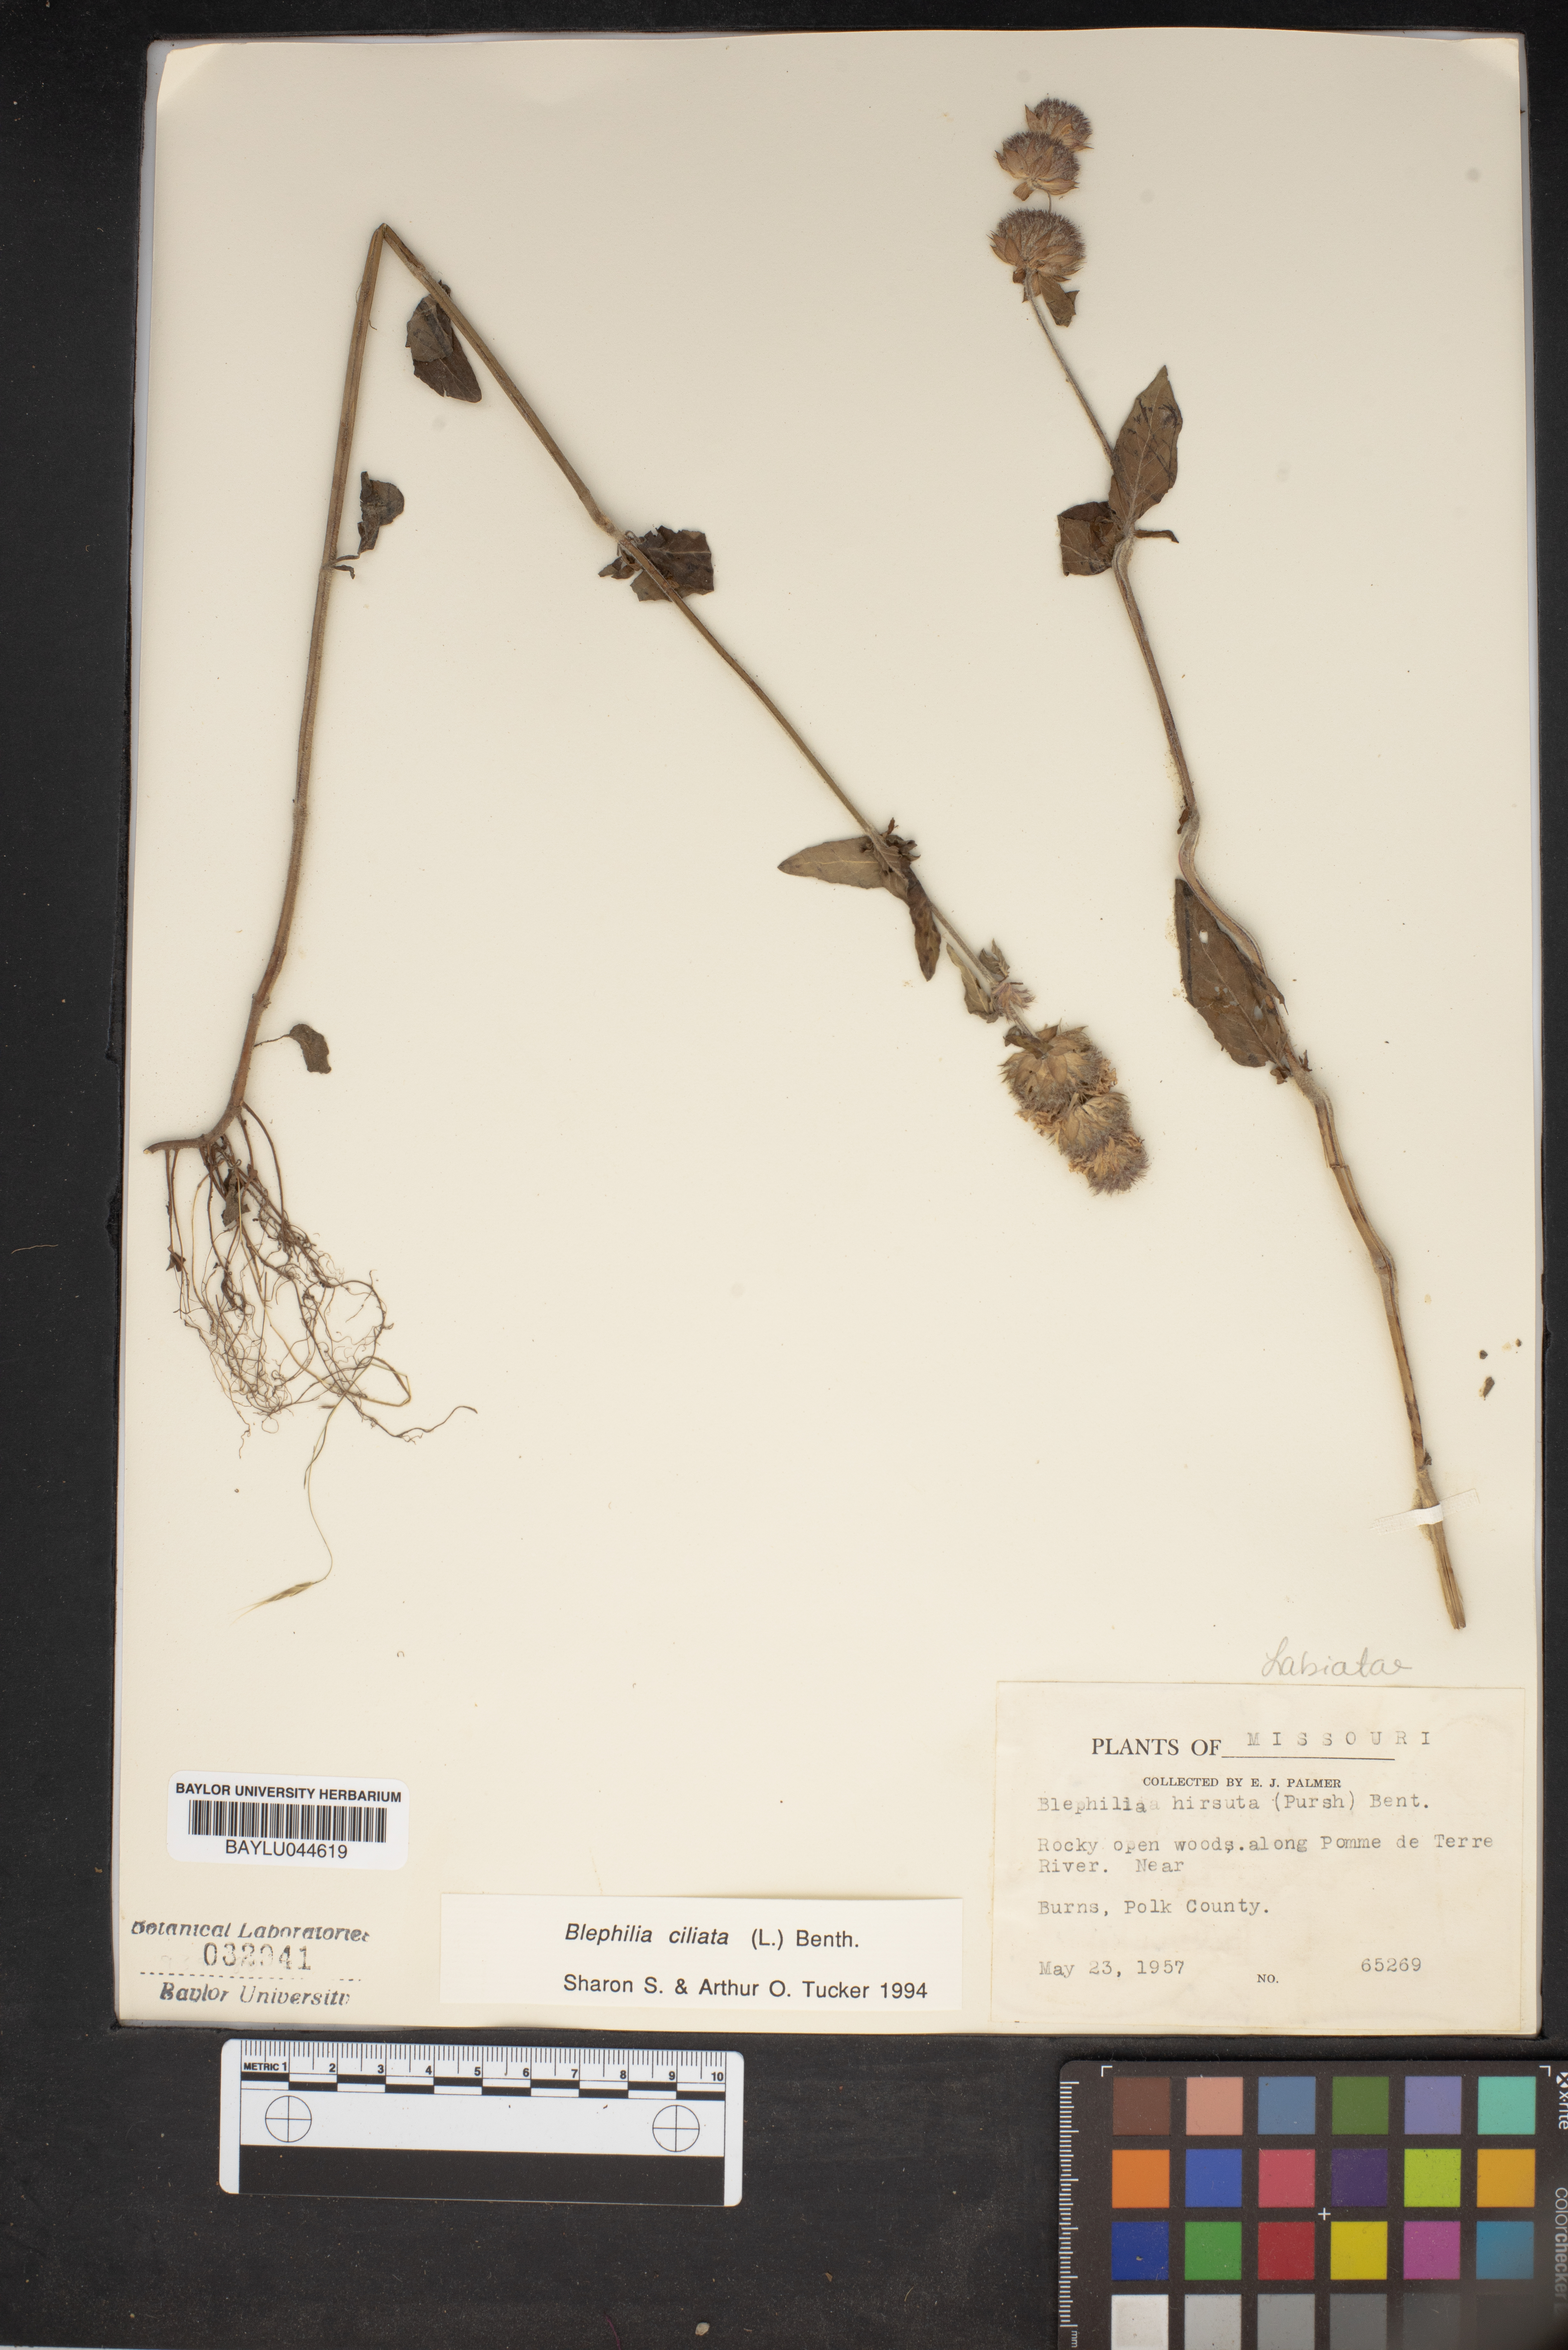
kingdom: Plantae
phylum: Tracheophyta
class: Magnoliopsida
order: Lamiales
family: Lamiaceae
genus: Blephilia
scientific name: Blephilia ciliata
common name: Downy blephilia
